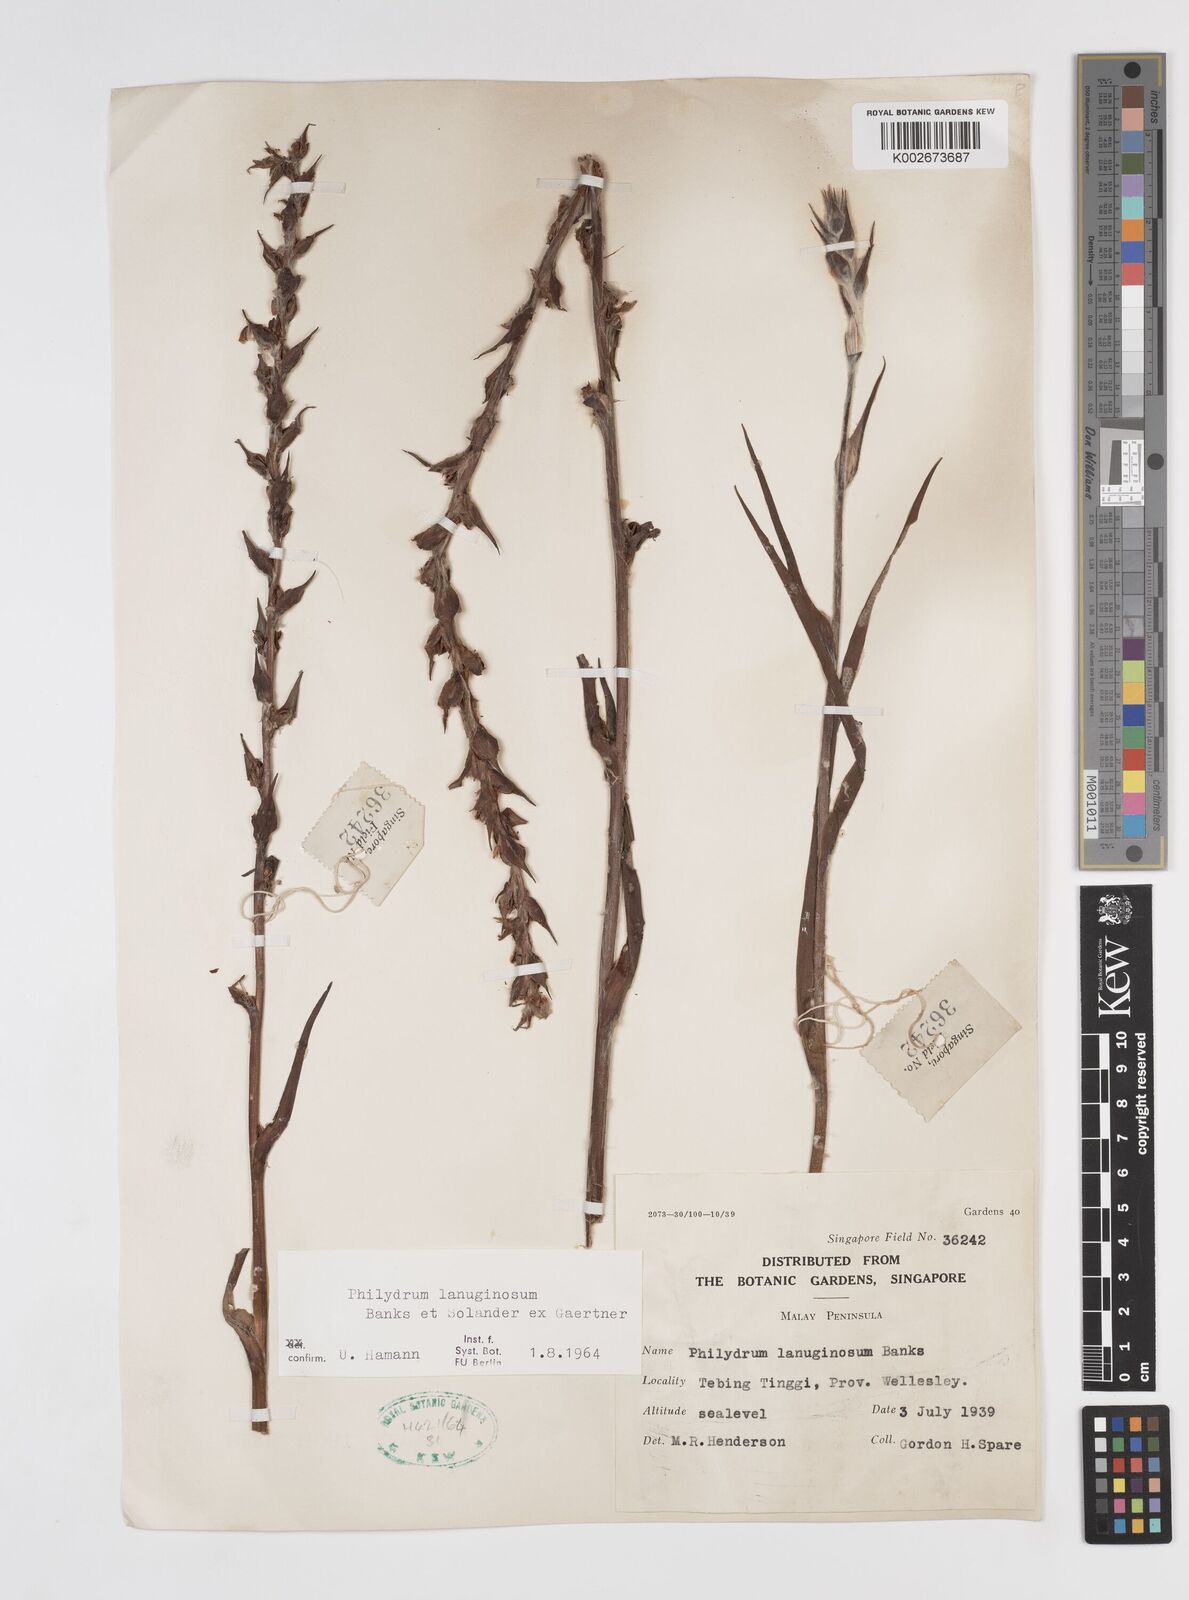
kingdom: Plantae
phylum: Tracheophyta
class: Liliopsida
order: Commelinales
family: Philydraceae
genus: Philydrum
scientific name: Philydrum lanuginosum
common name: Woolly frog's mouth
